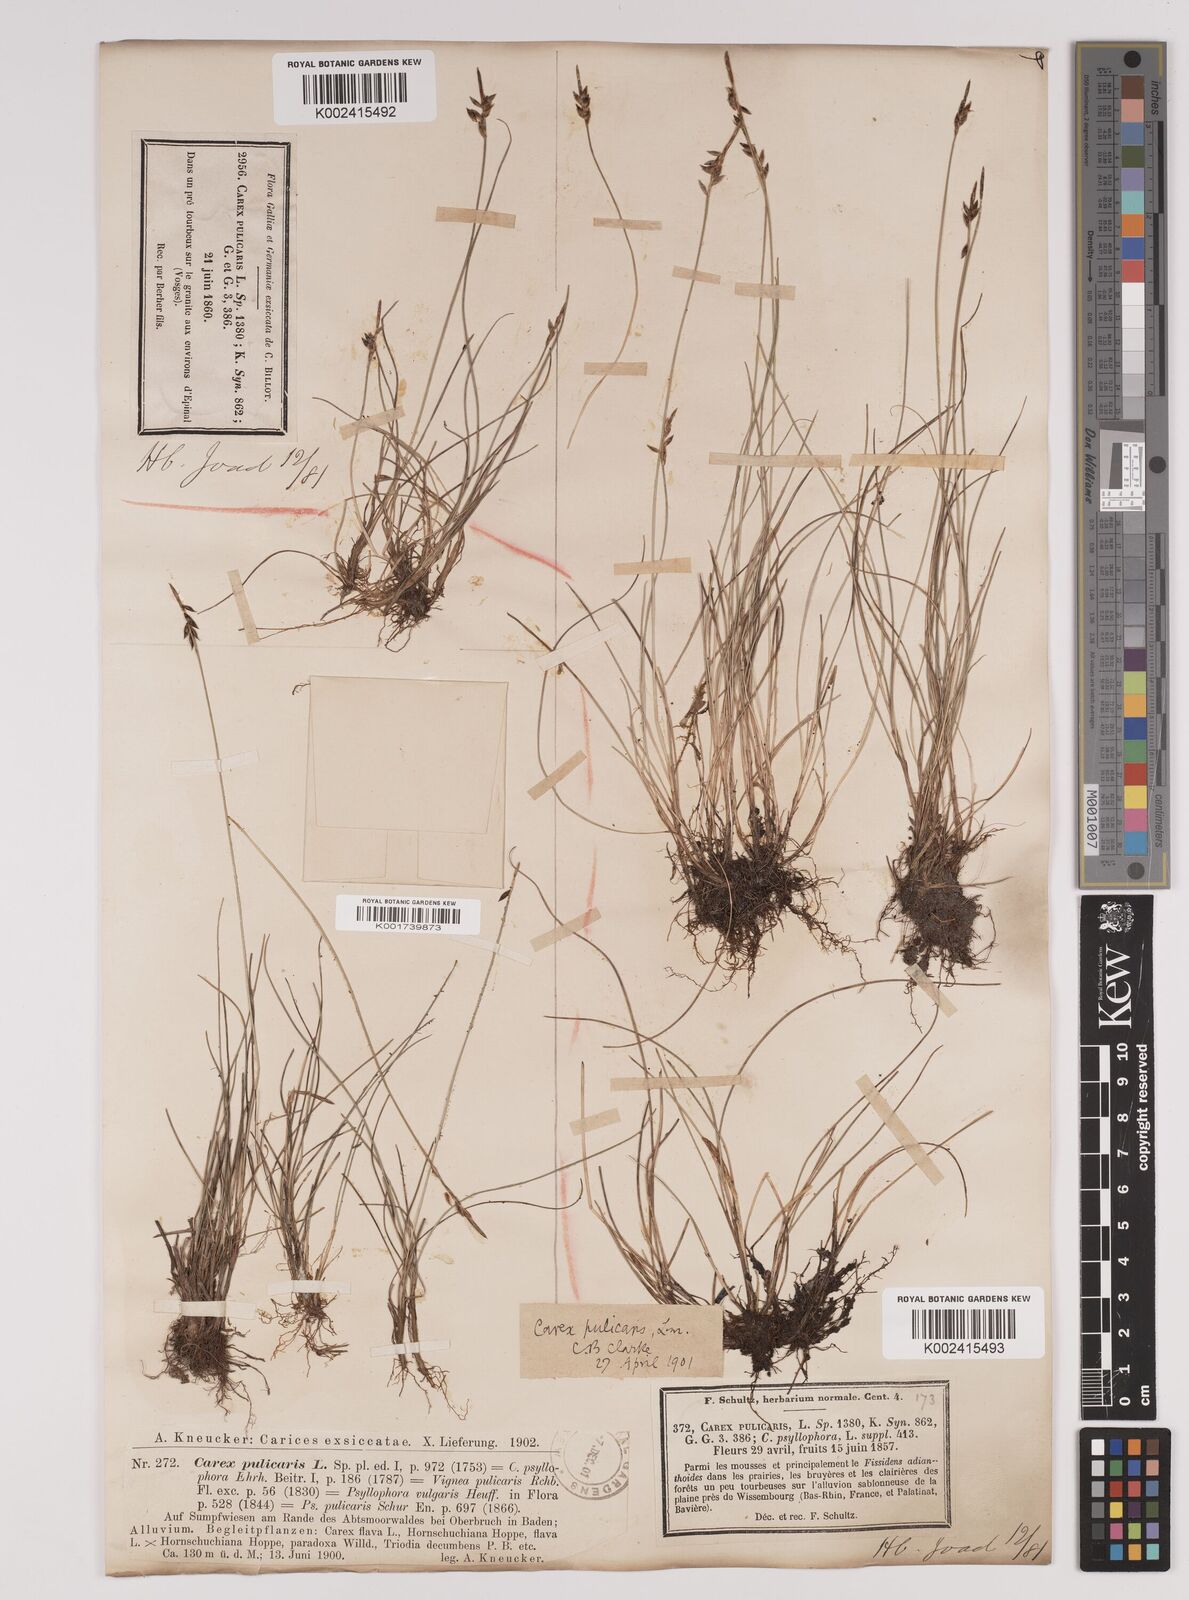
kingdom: Plantae
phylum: Tracheophyta
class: Liliopsida
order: Poales
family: Cyperaceae
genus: Carex
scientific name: Carex pulicaris
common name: Flea sedge
